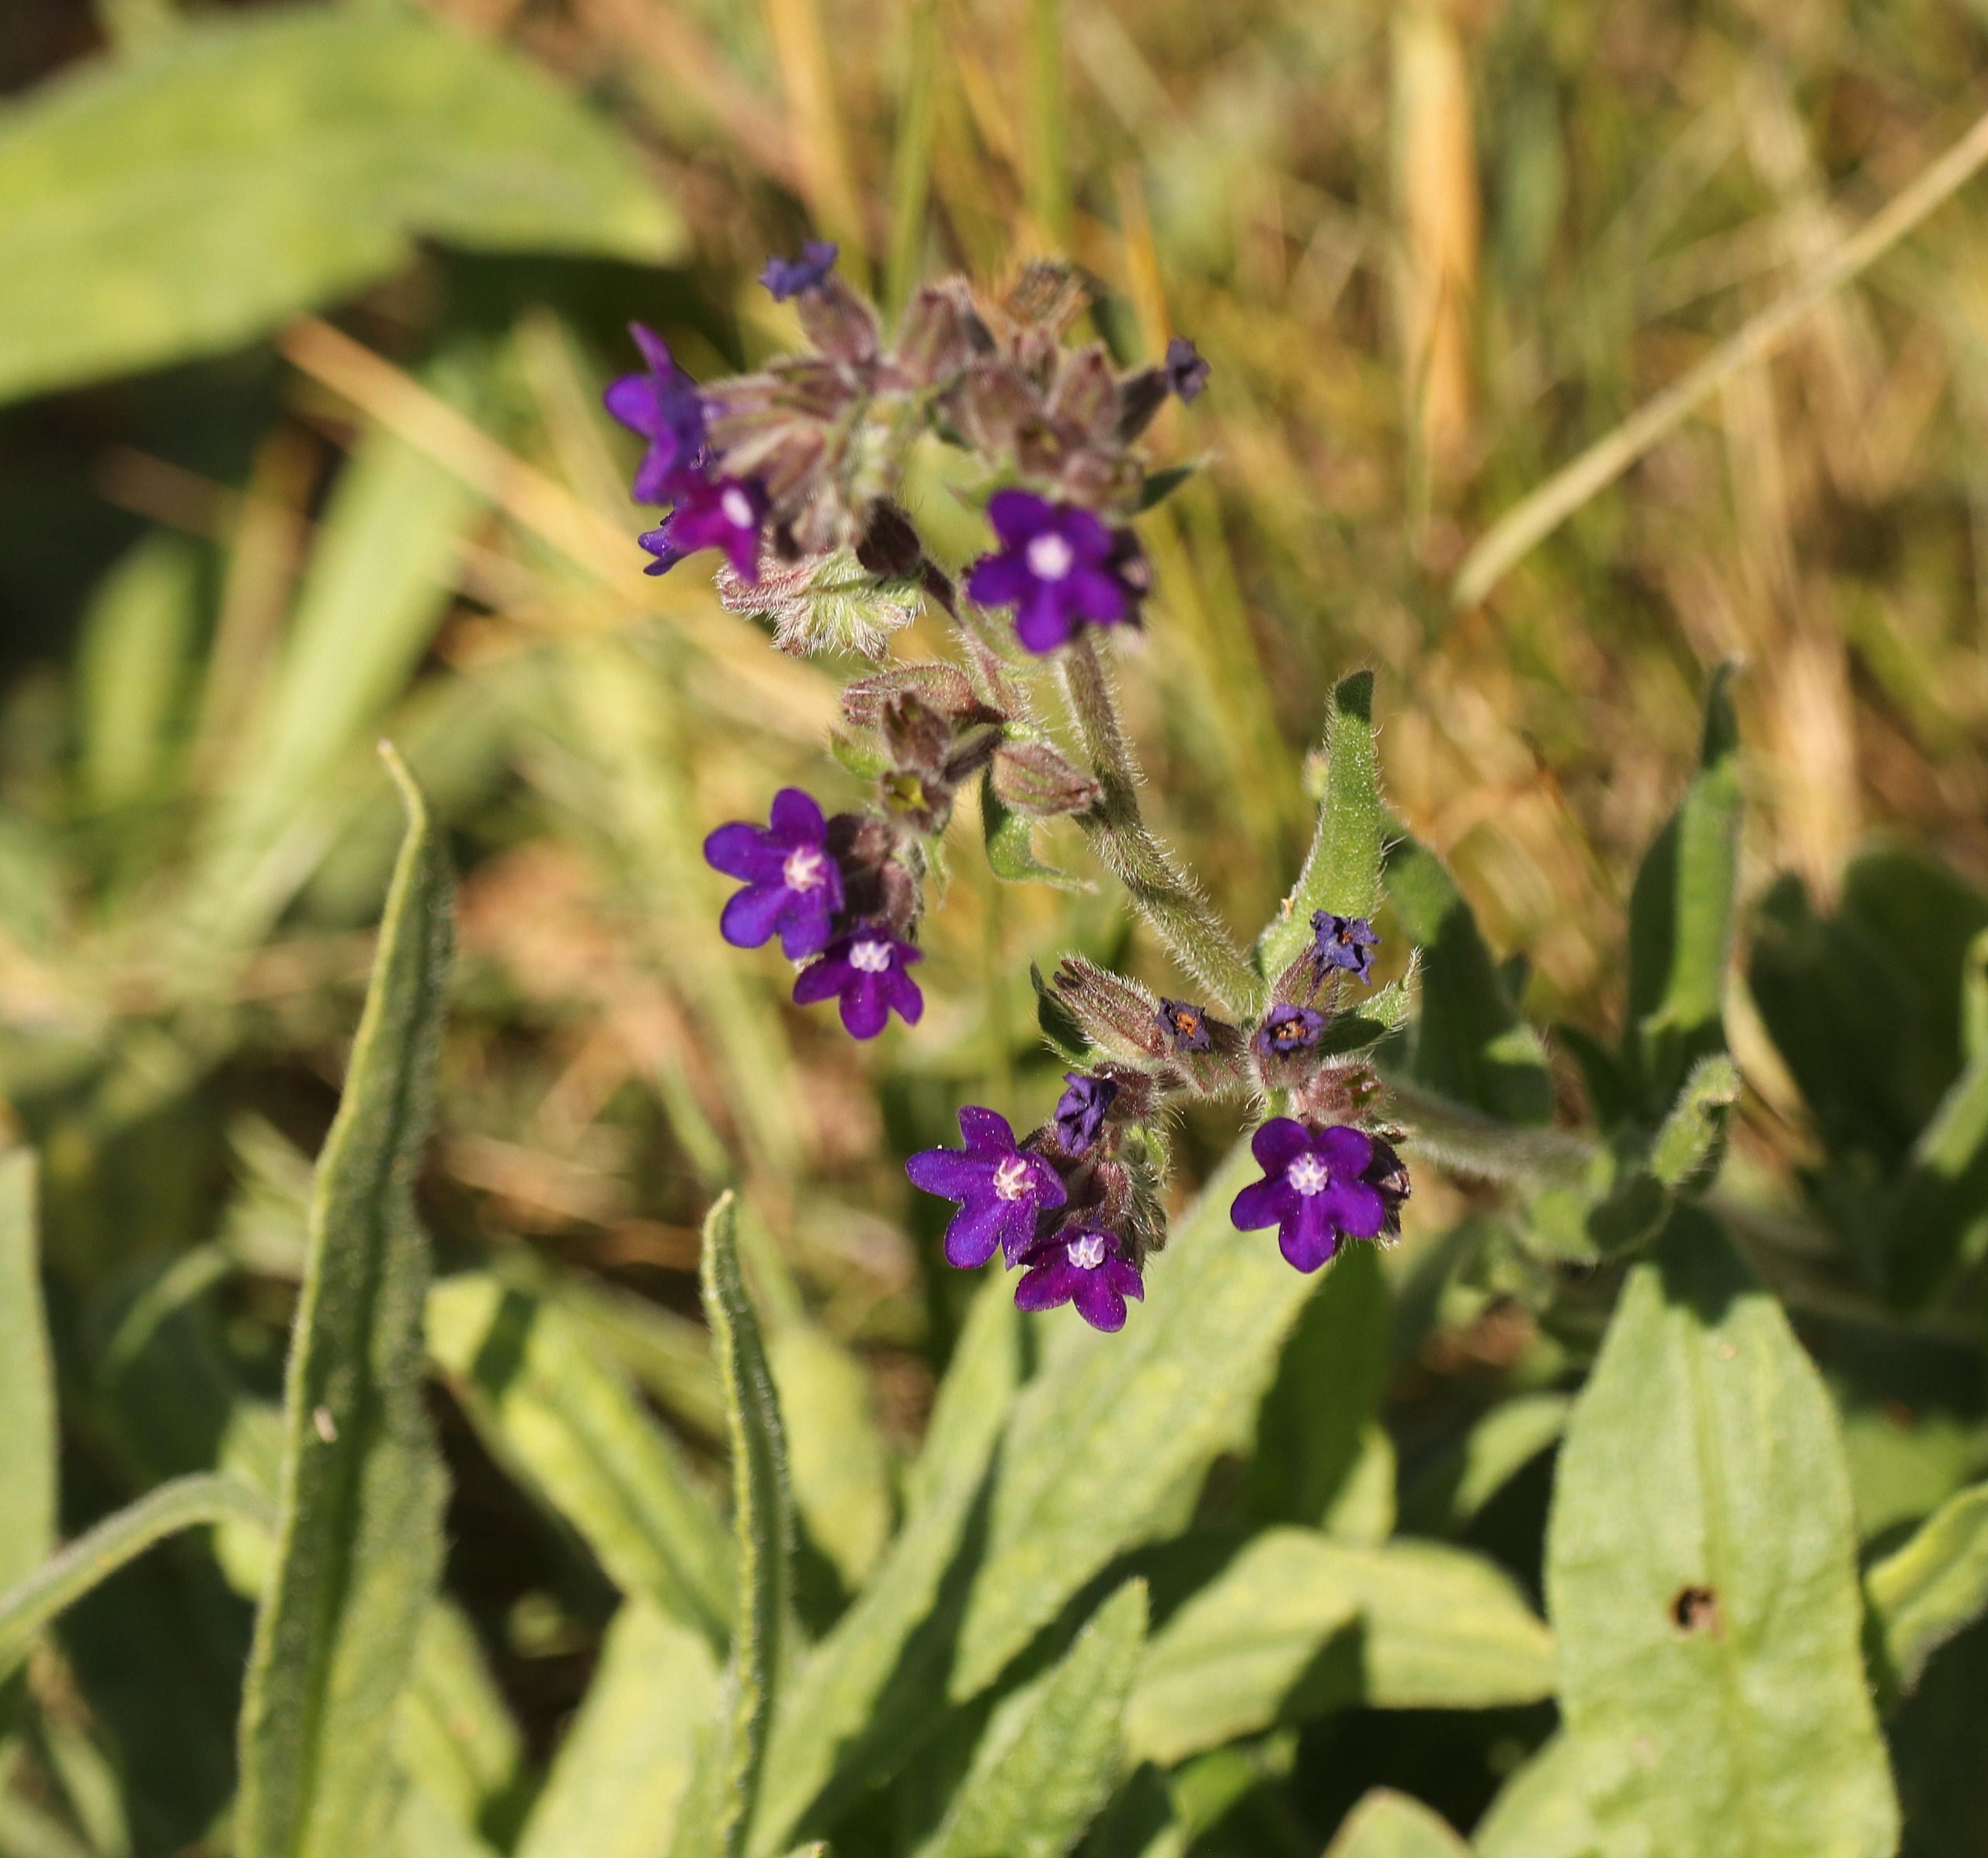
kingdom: Plantae
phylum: Tracheophyta
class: Magnoliopsida
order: Boraginales
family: Boraginaceae
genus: Anchusa
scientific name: Anchusa officinalis
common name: Læge-oksetunge
